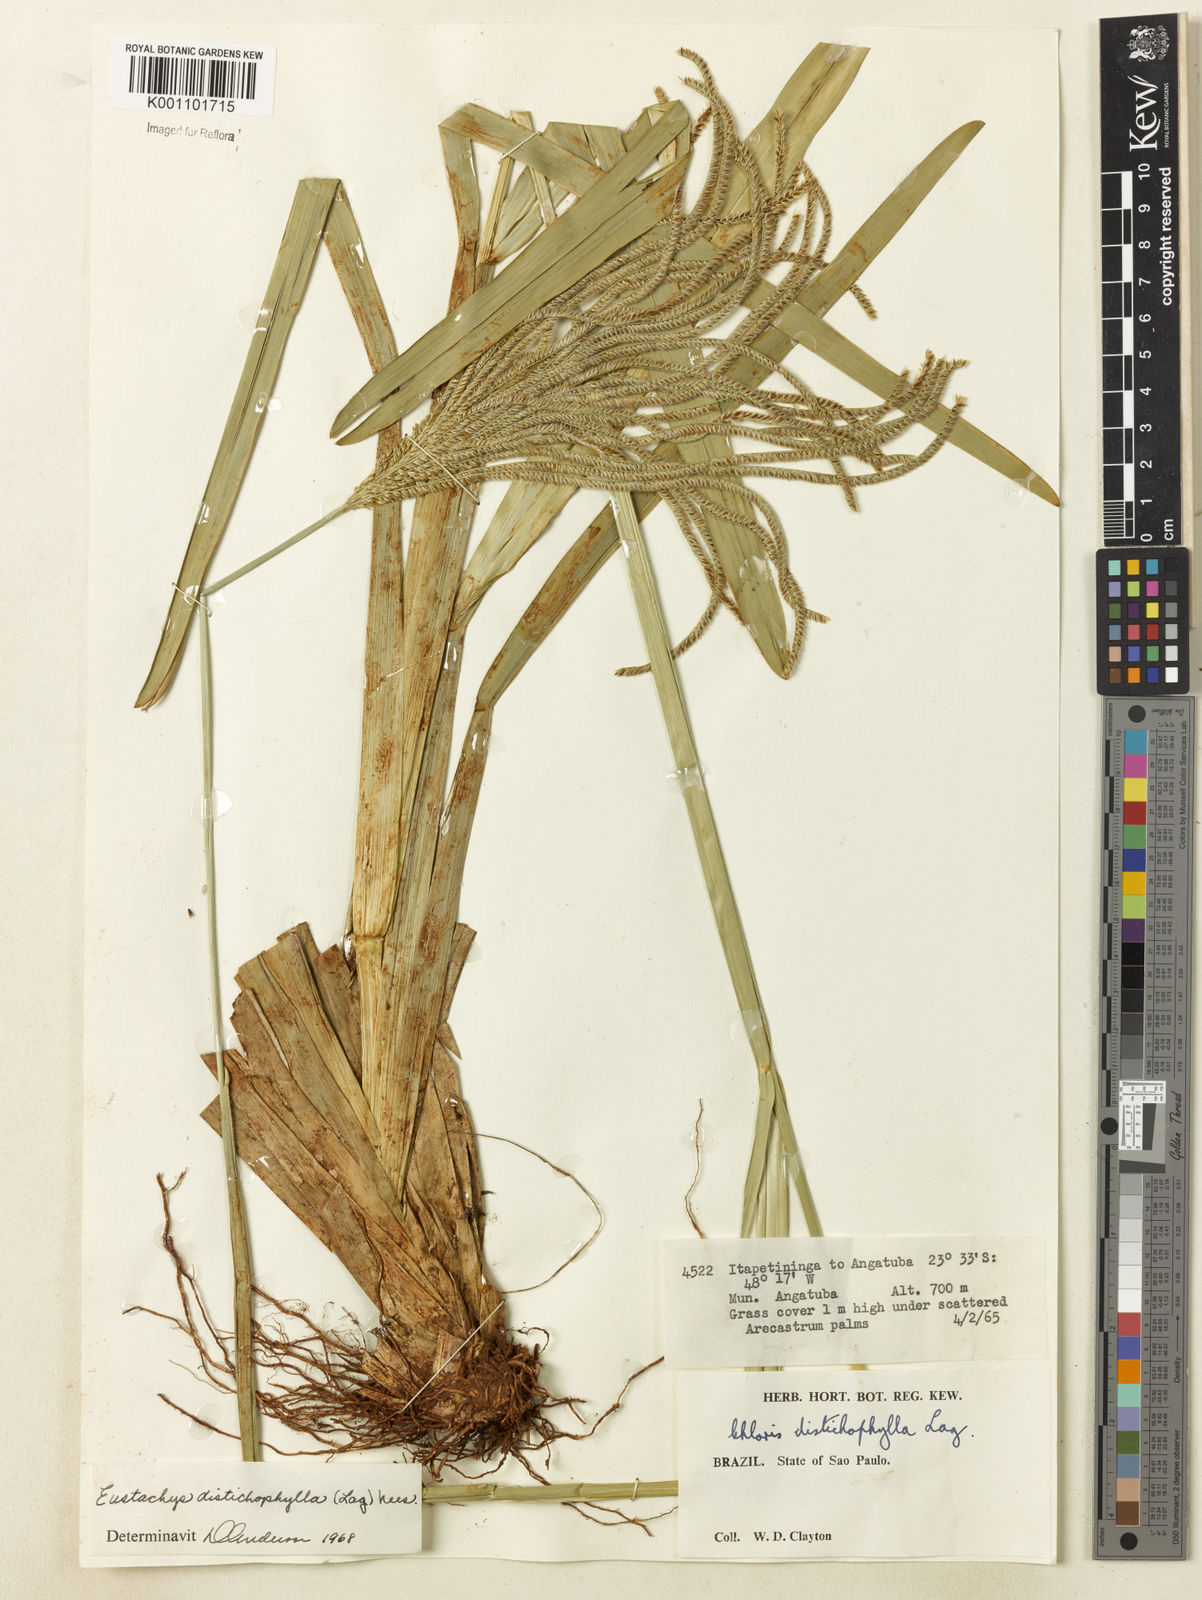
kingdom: Plantae
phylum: Tracheophyta
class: Liliopsida
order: Poales
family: Poaceae
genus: Eustachys
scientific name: Eustachys distichophylla
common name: Weeping fingergrass
